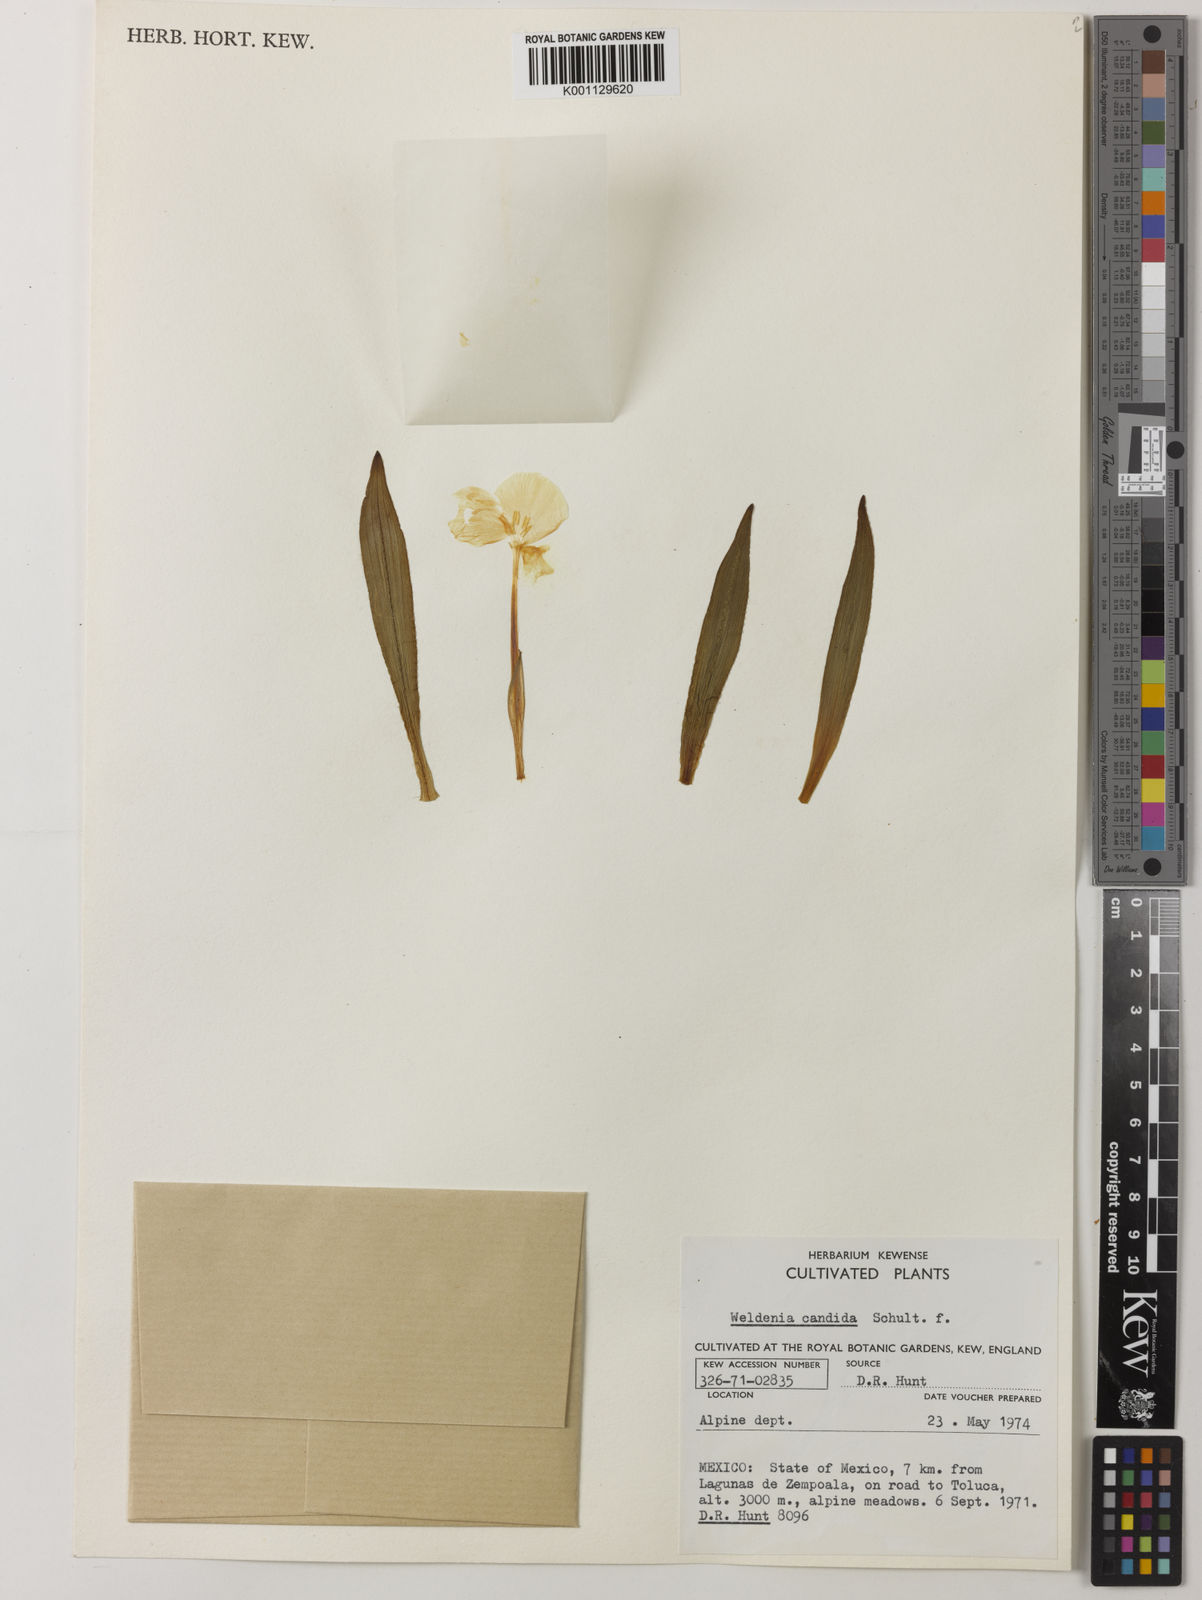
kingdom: Plantae
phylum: Tracheophyta
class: Liliopsida
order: Commelinales
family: Commelinaceae
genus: Weldenia
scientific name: Weldenia candida
